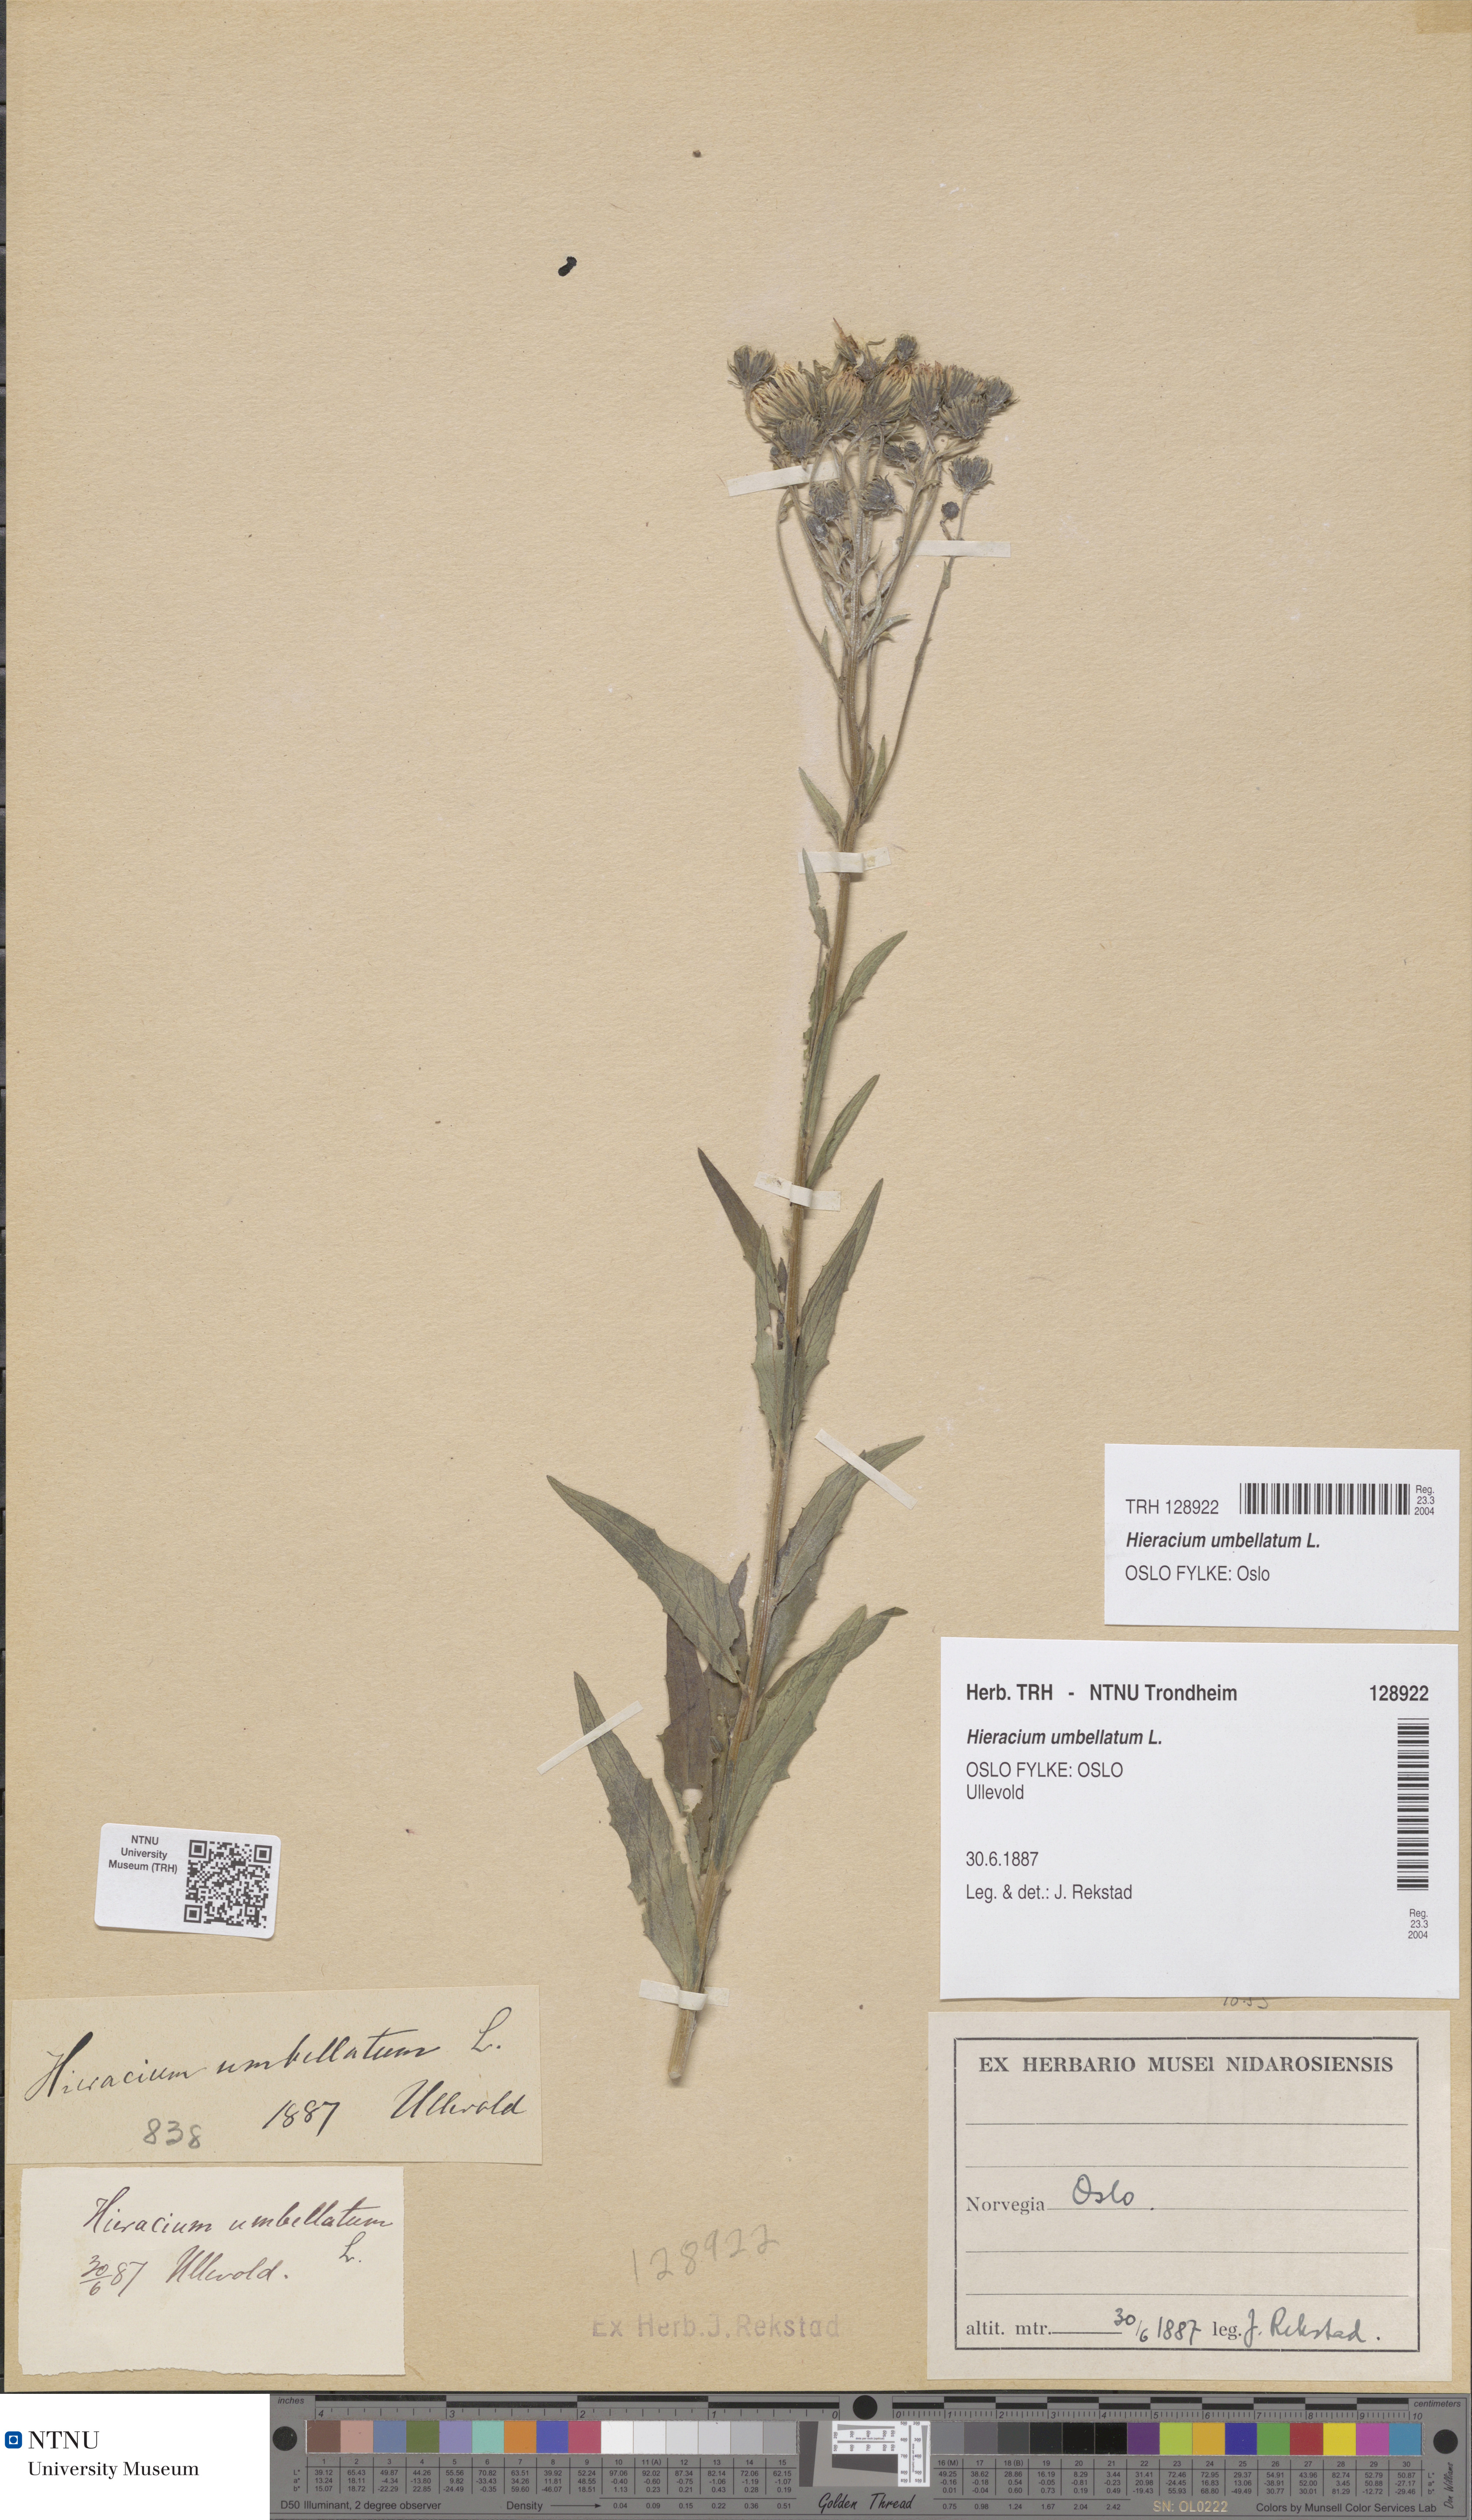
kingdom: Plantae
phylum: Tracheophyta
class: Magnoliopsida
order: Asterales
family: Asteraceae
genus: Hieracium
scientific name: Hieracium umbellatum
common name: Northern hawkweed
